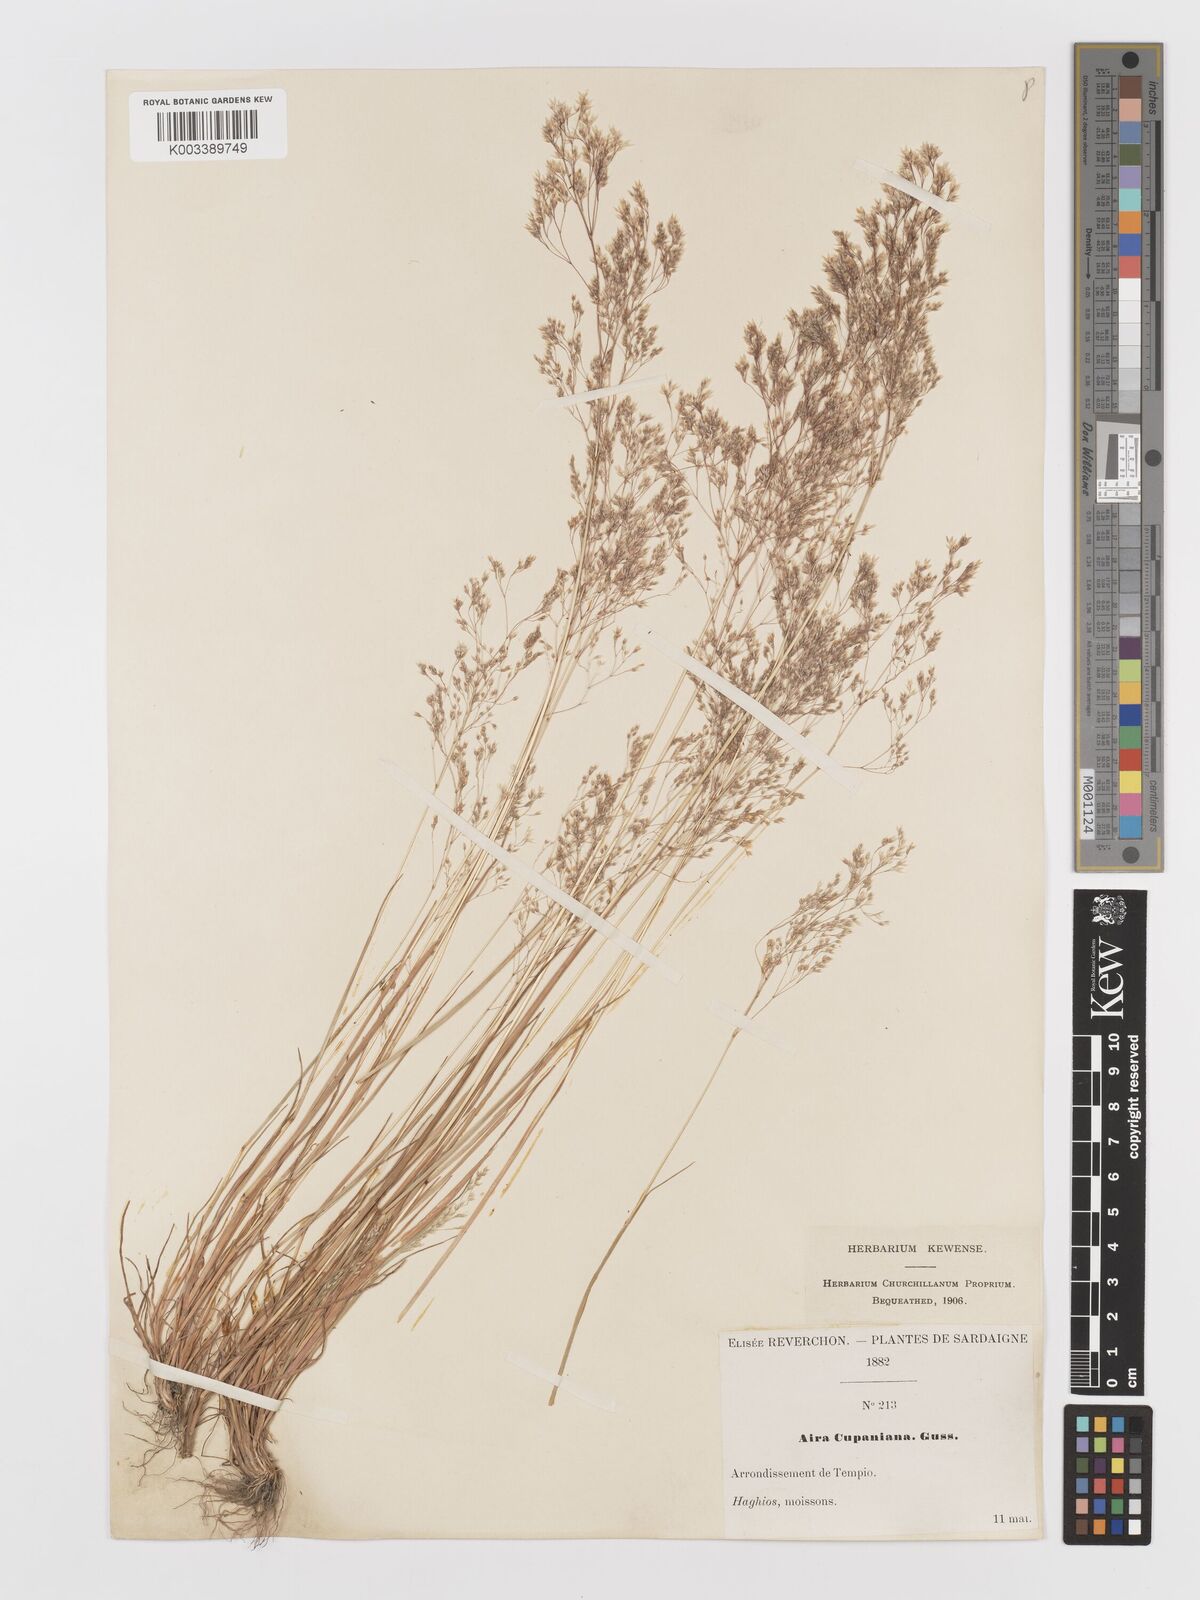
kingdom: Plantae
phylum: Tracheophyta
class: Liliopsida
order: Poales
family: Poaceae
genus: Aira
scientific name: Aira cupaniana
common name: Silver hairgrass
